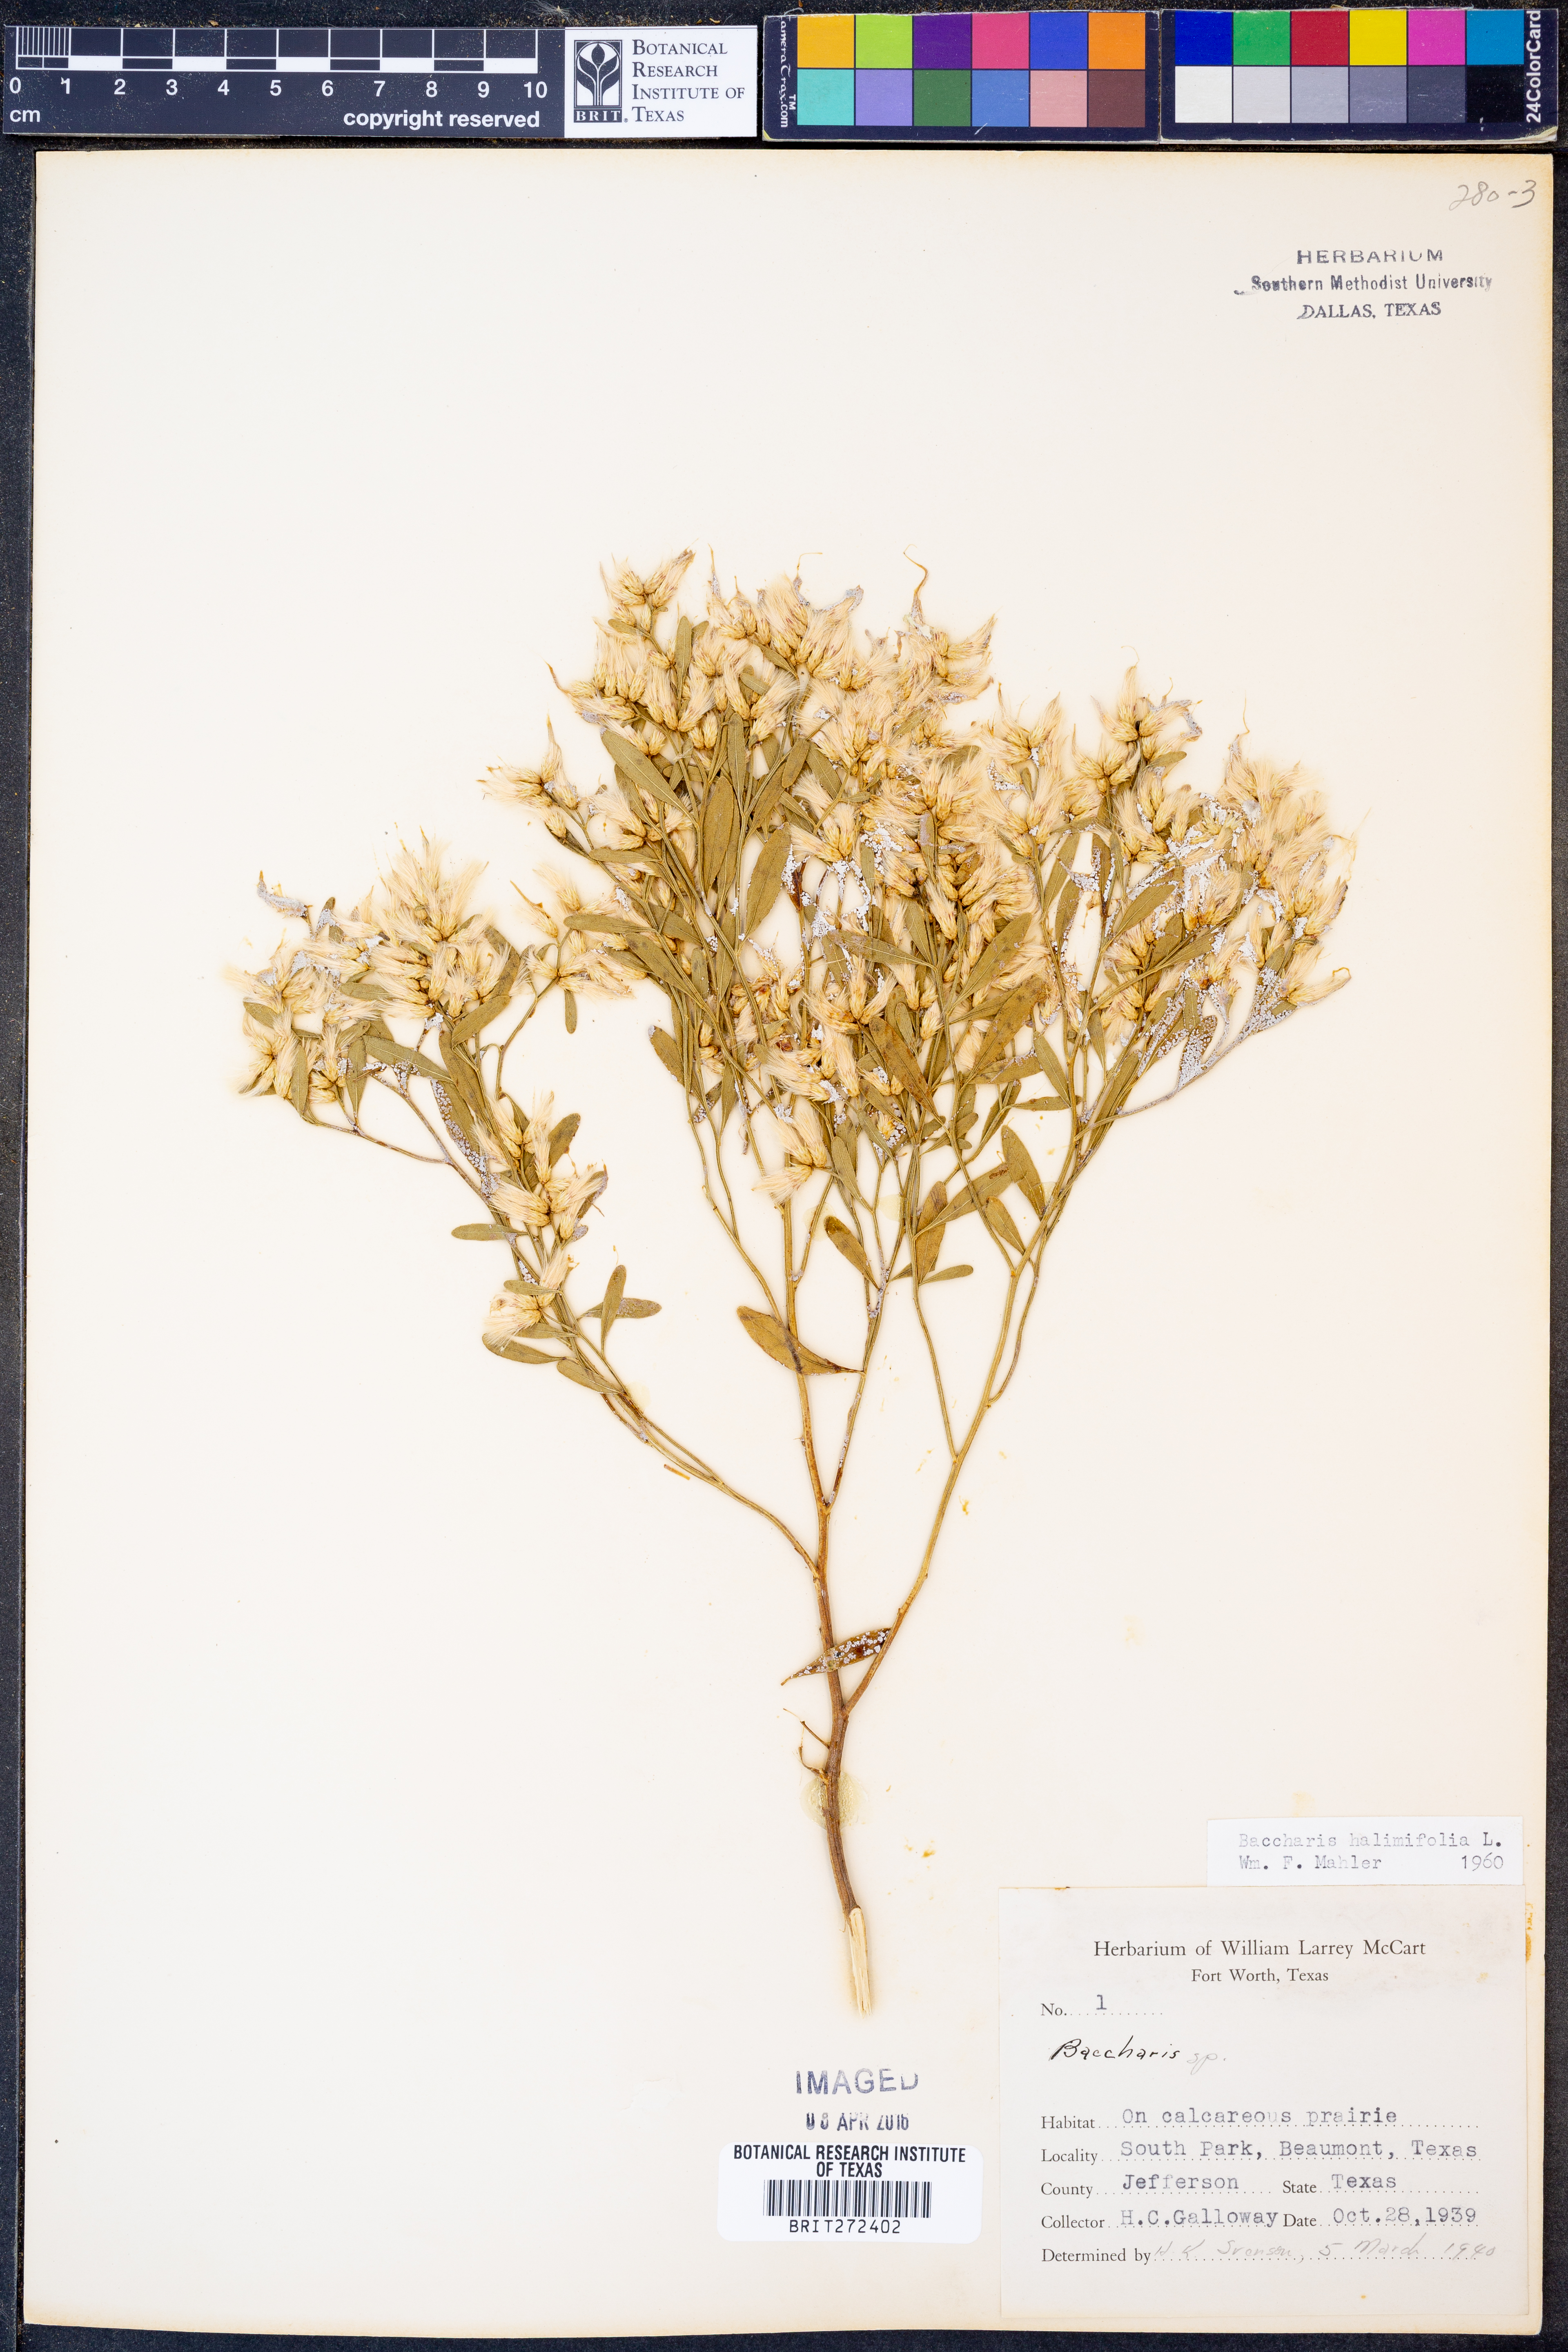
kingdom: Plantae
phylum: Tracheophyta
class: Magnoliopsida
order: Asterales
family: Asteraceae
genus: Nidorella
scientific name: Nidorella ivifolia
